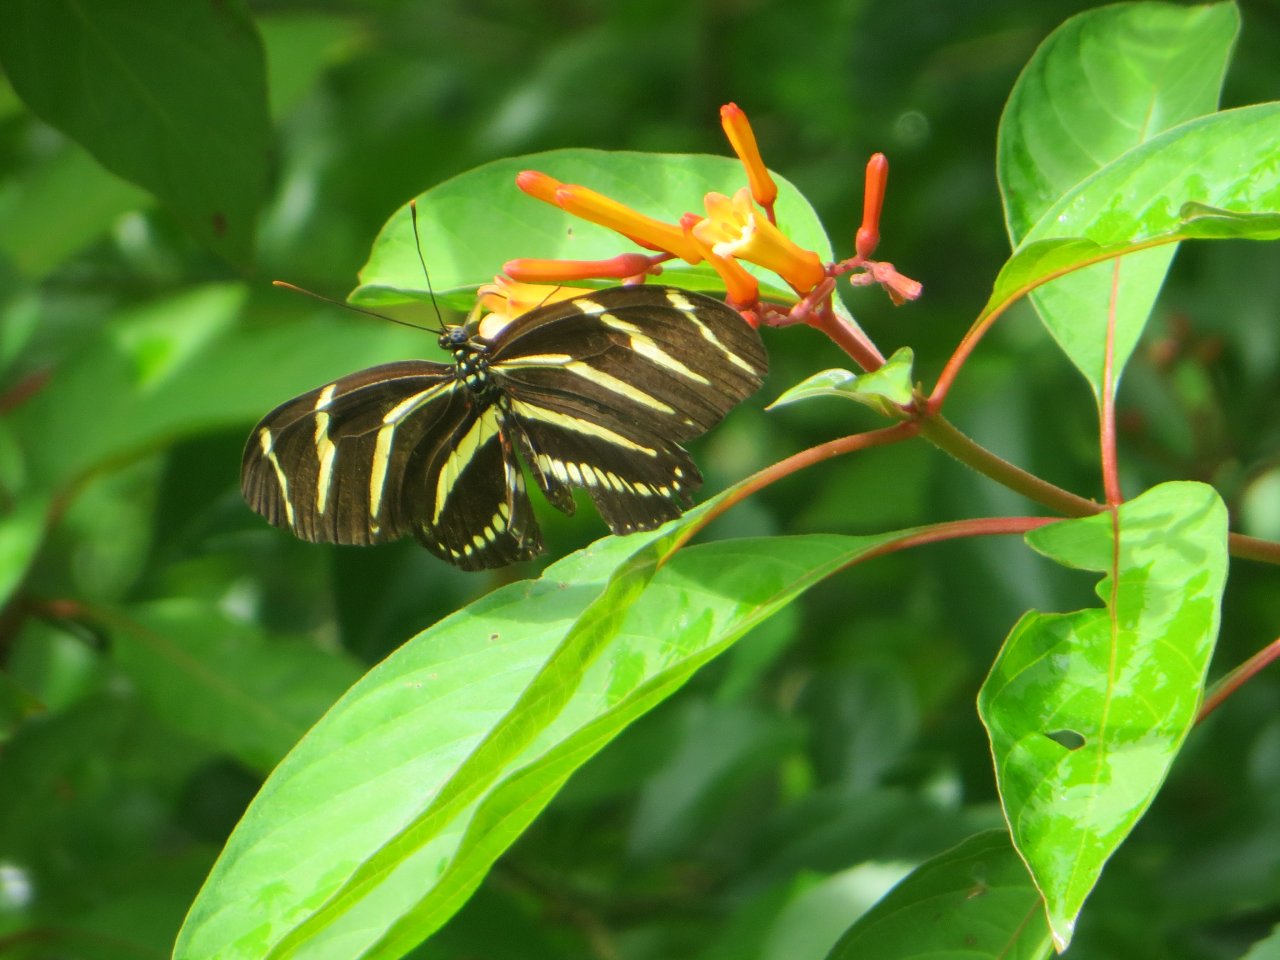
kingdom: Animalia
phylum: Arthropoda
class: Insecta
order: Lepidoptera
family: Nymphalidae
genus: Heliconius
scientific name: Heliconius charithonia
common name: Zebra Longwing
